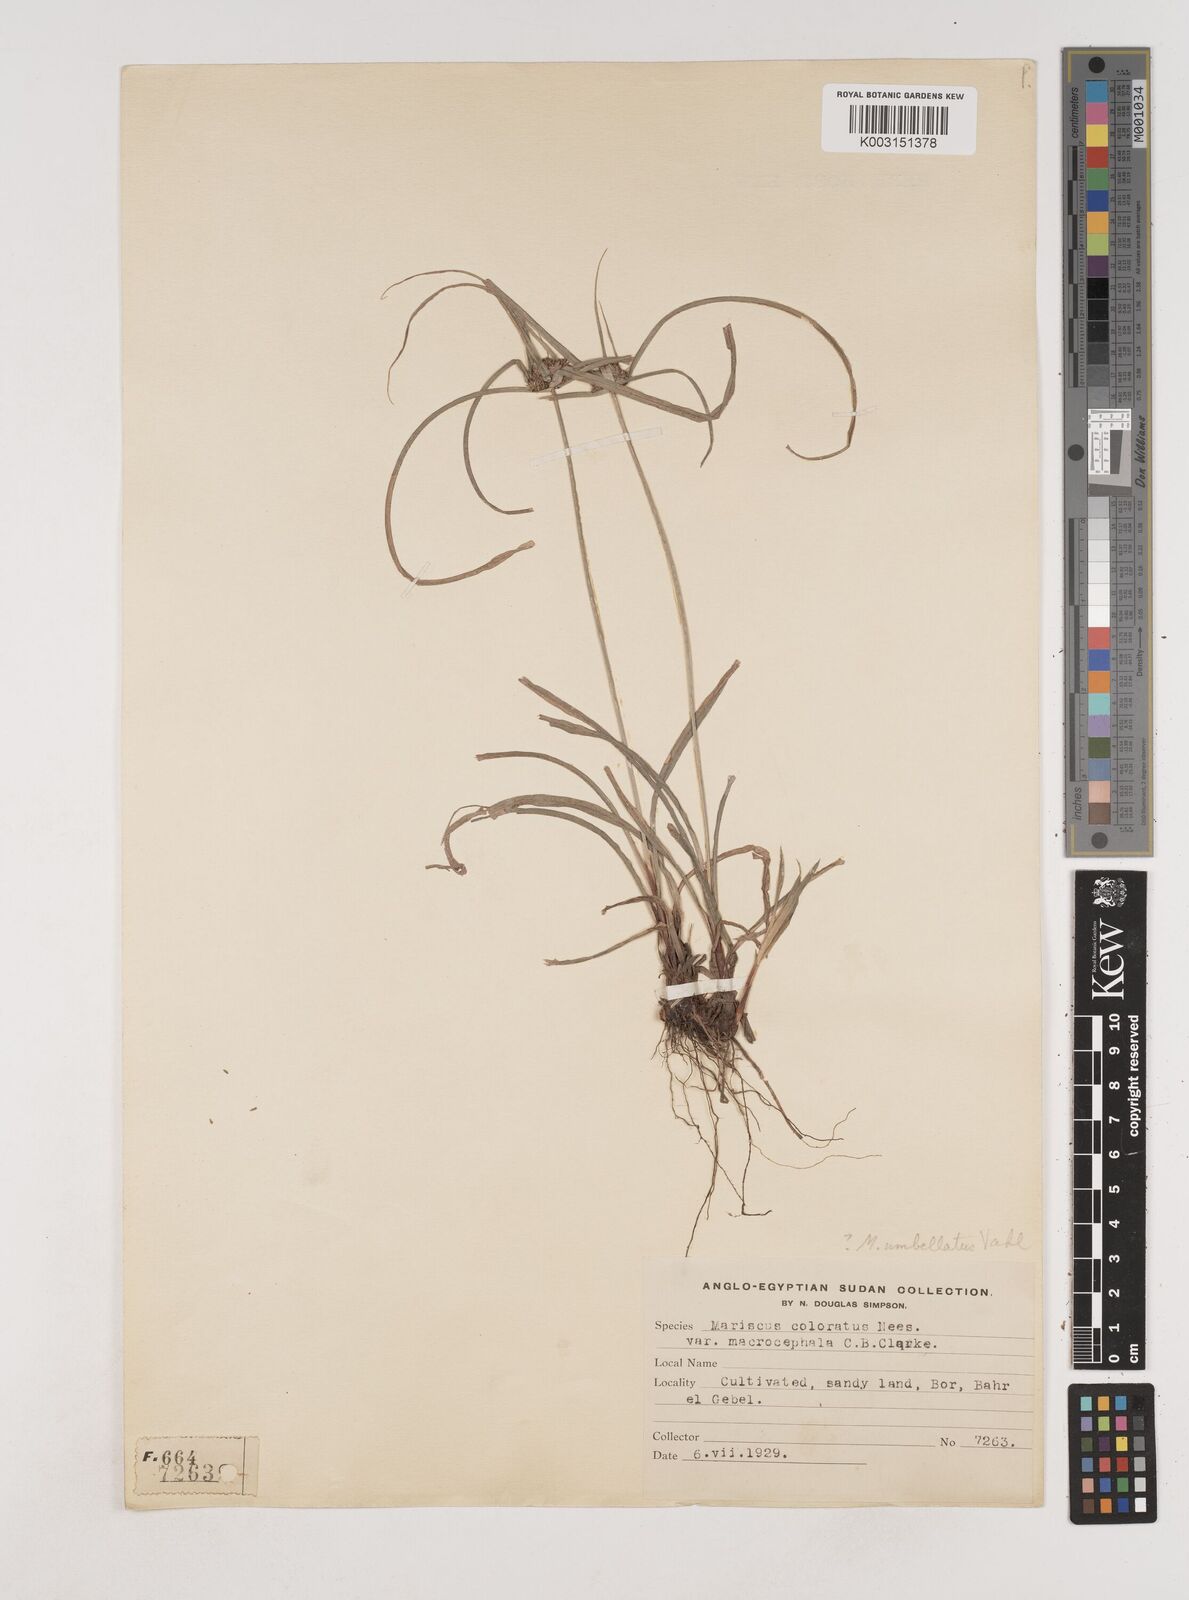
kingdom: Plantae
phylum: Tracheophyta
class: Liliopsida
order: Poales
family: Cyperaceae
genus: Cyperus
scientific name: Cyperus cyperoides
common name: Pacific island flat sedge
